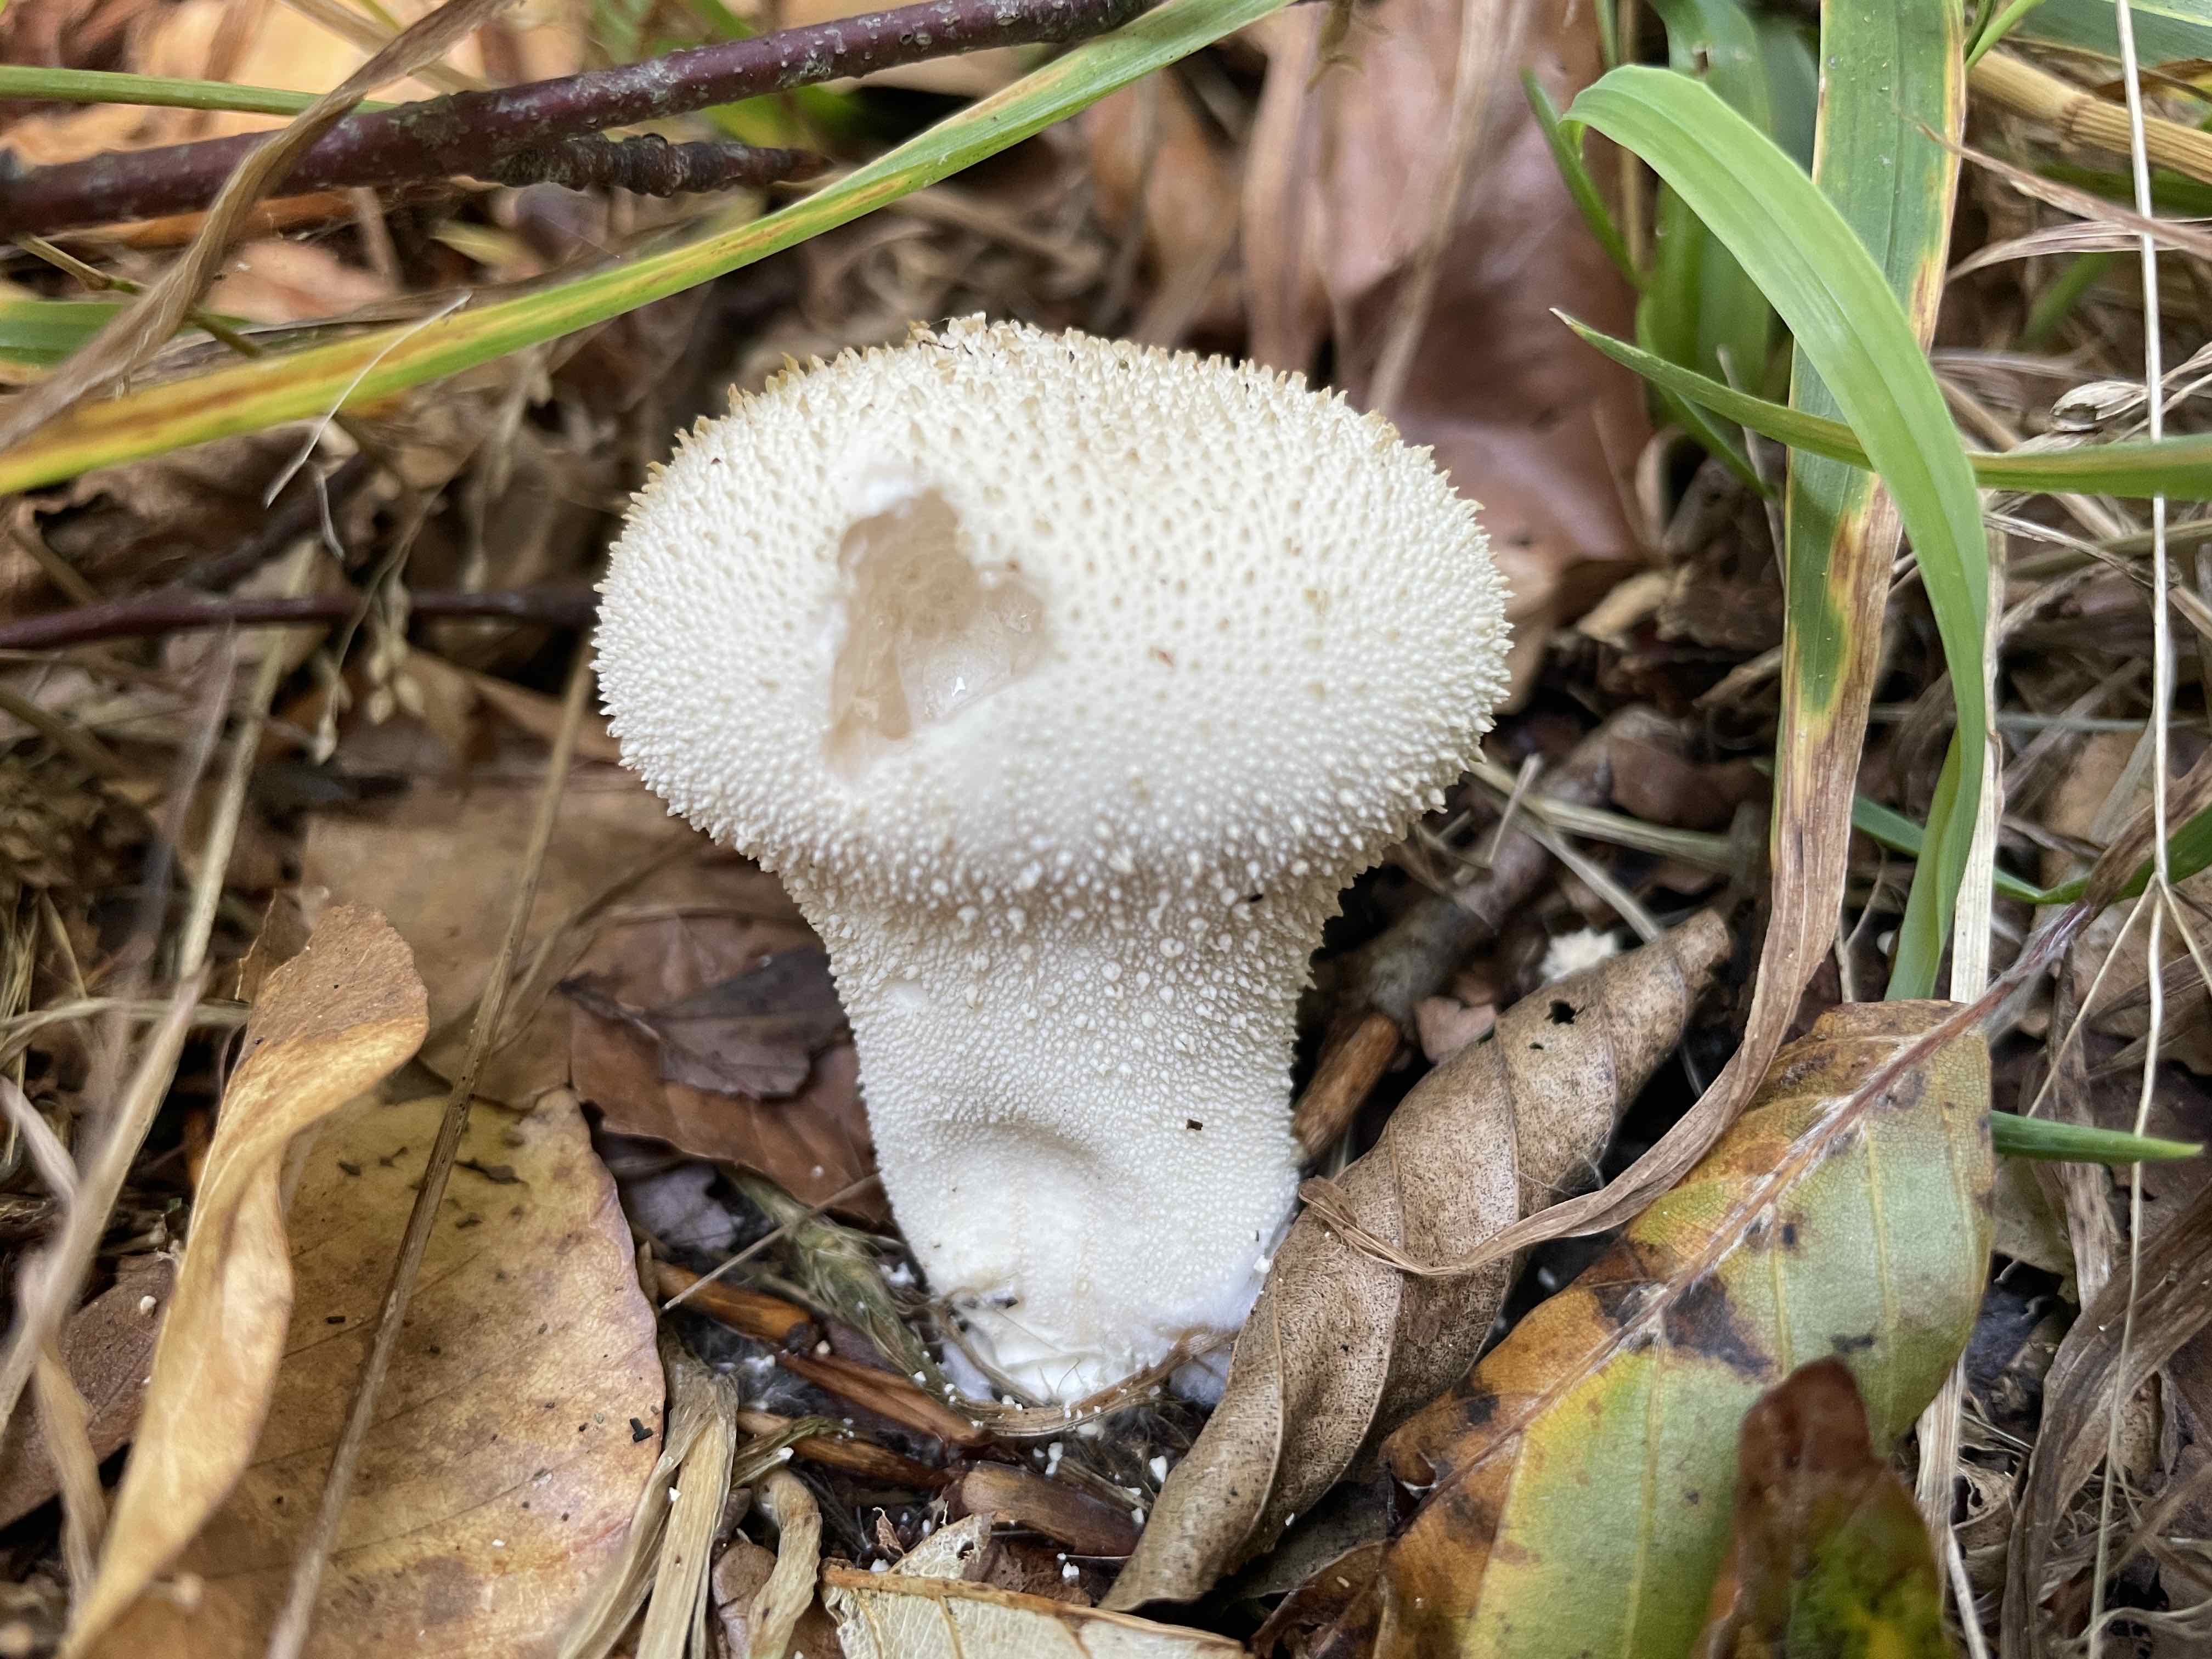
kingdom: Fungi
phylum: Basidiomycota
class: Agaricomycetes
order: Agaricales
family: Lycoperdaceae
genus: Lycoperdon
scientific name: Lycoperdon perlatum
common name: krystal-støvbold
